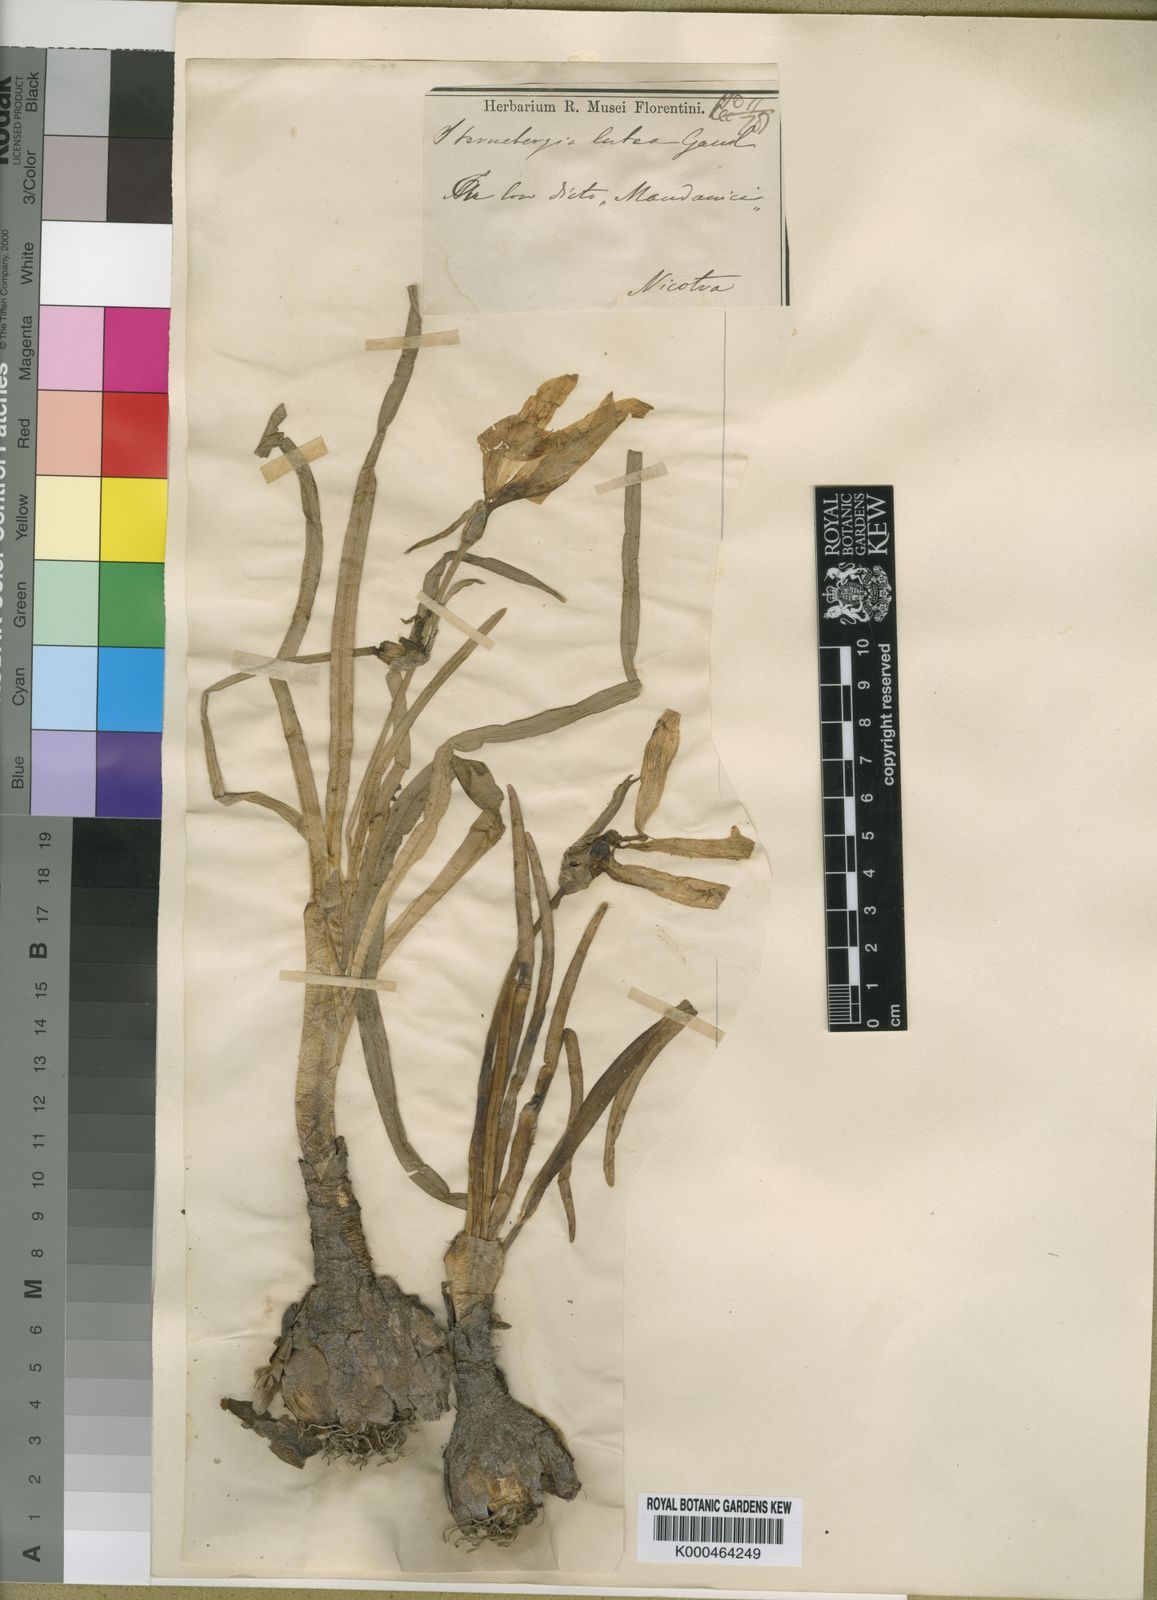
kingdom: Plantae
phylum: Tracheophyta
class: Liliopsida
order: Asparagales
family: Amaryllidaceae
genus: Sternbergia
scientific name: Sternbergia
